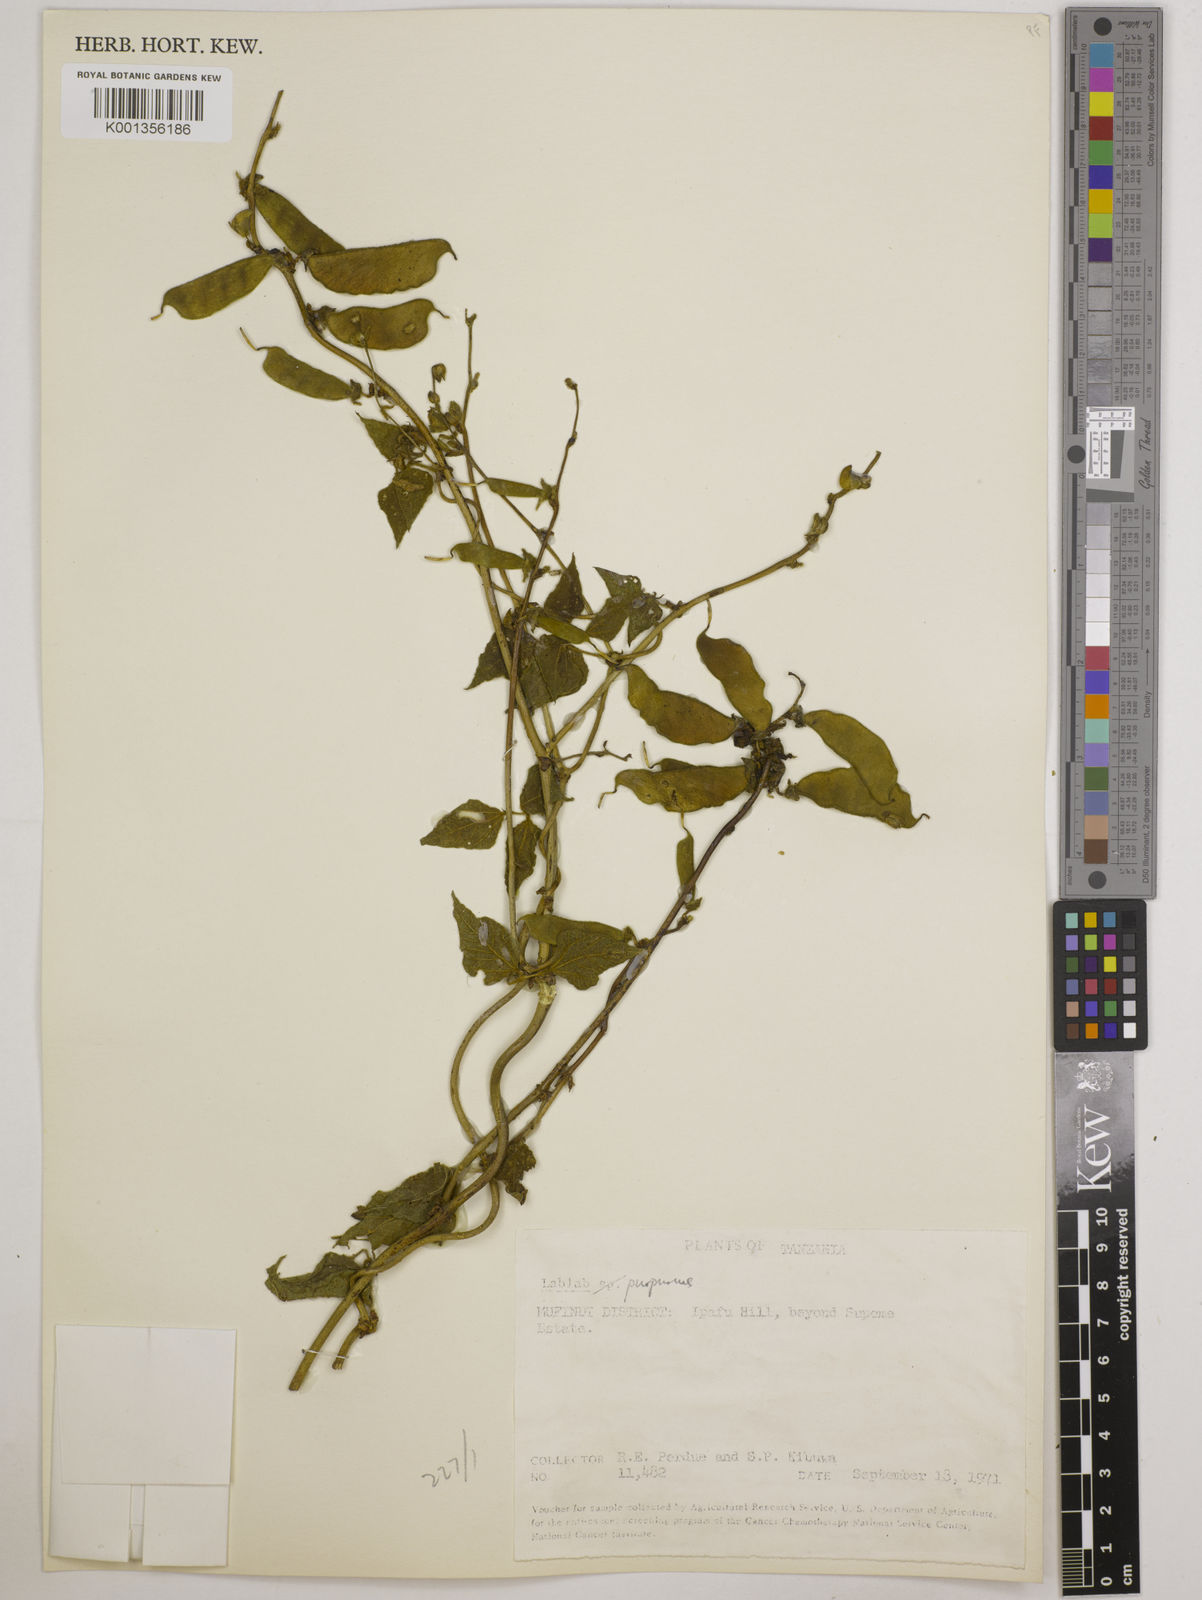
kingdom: Plantae
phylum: Tracheophyta
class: Magnoliopsida
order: Fabales
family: Fabaceae
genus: Lablab
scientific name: Lablab purpureus
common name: Lablab-bean
